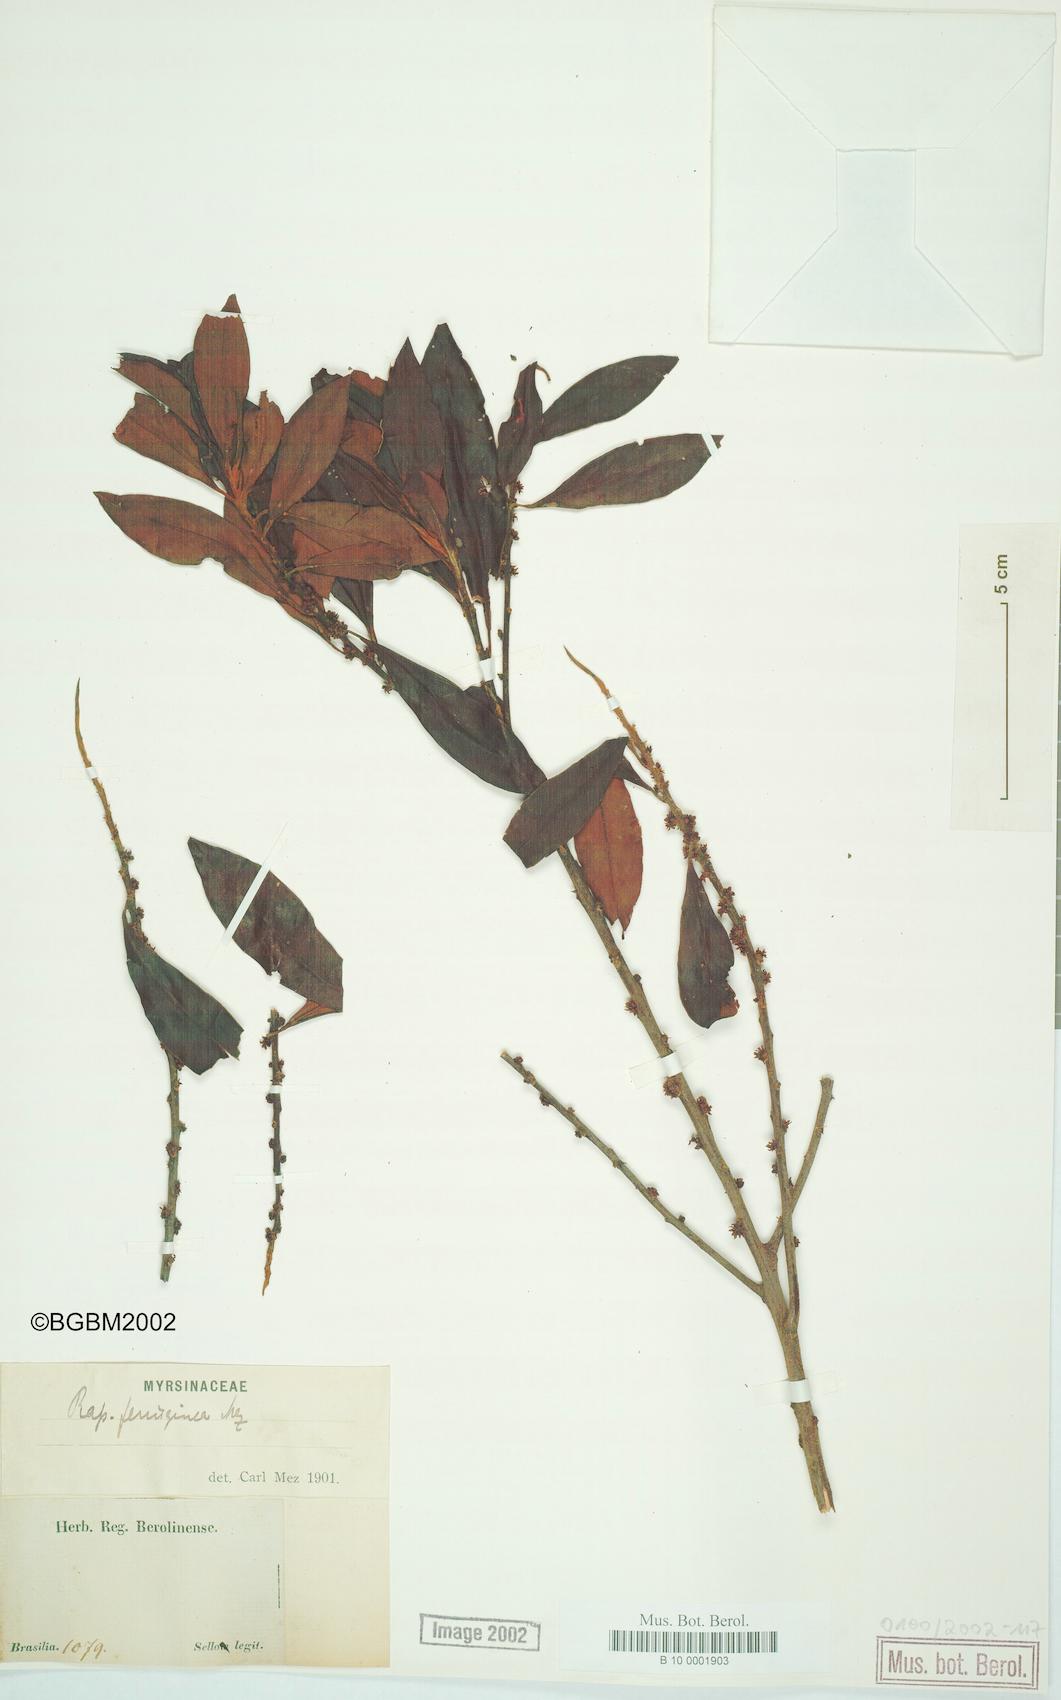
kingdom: Plantae
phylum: Tracheophyta
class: Magnoliopsida
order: Ericales
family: Primulaceae
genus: Myrsine
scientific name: Myrsine coriacea
